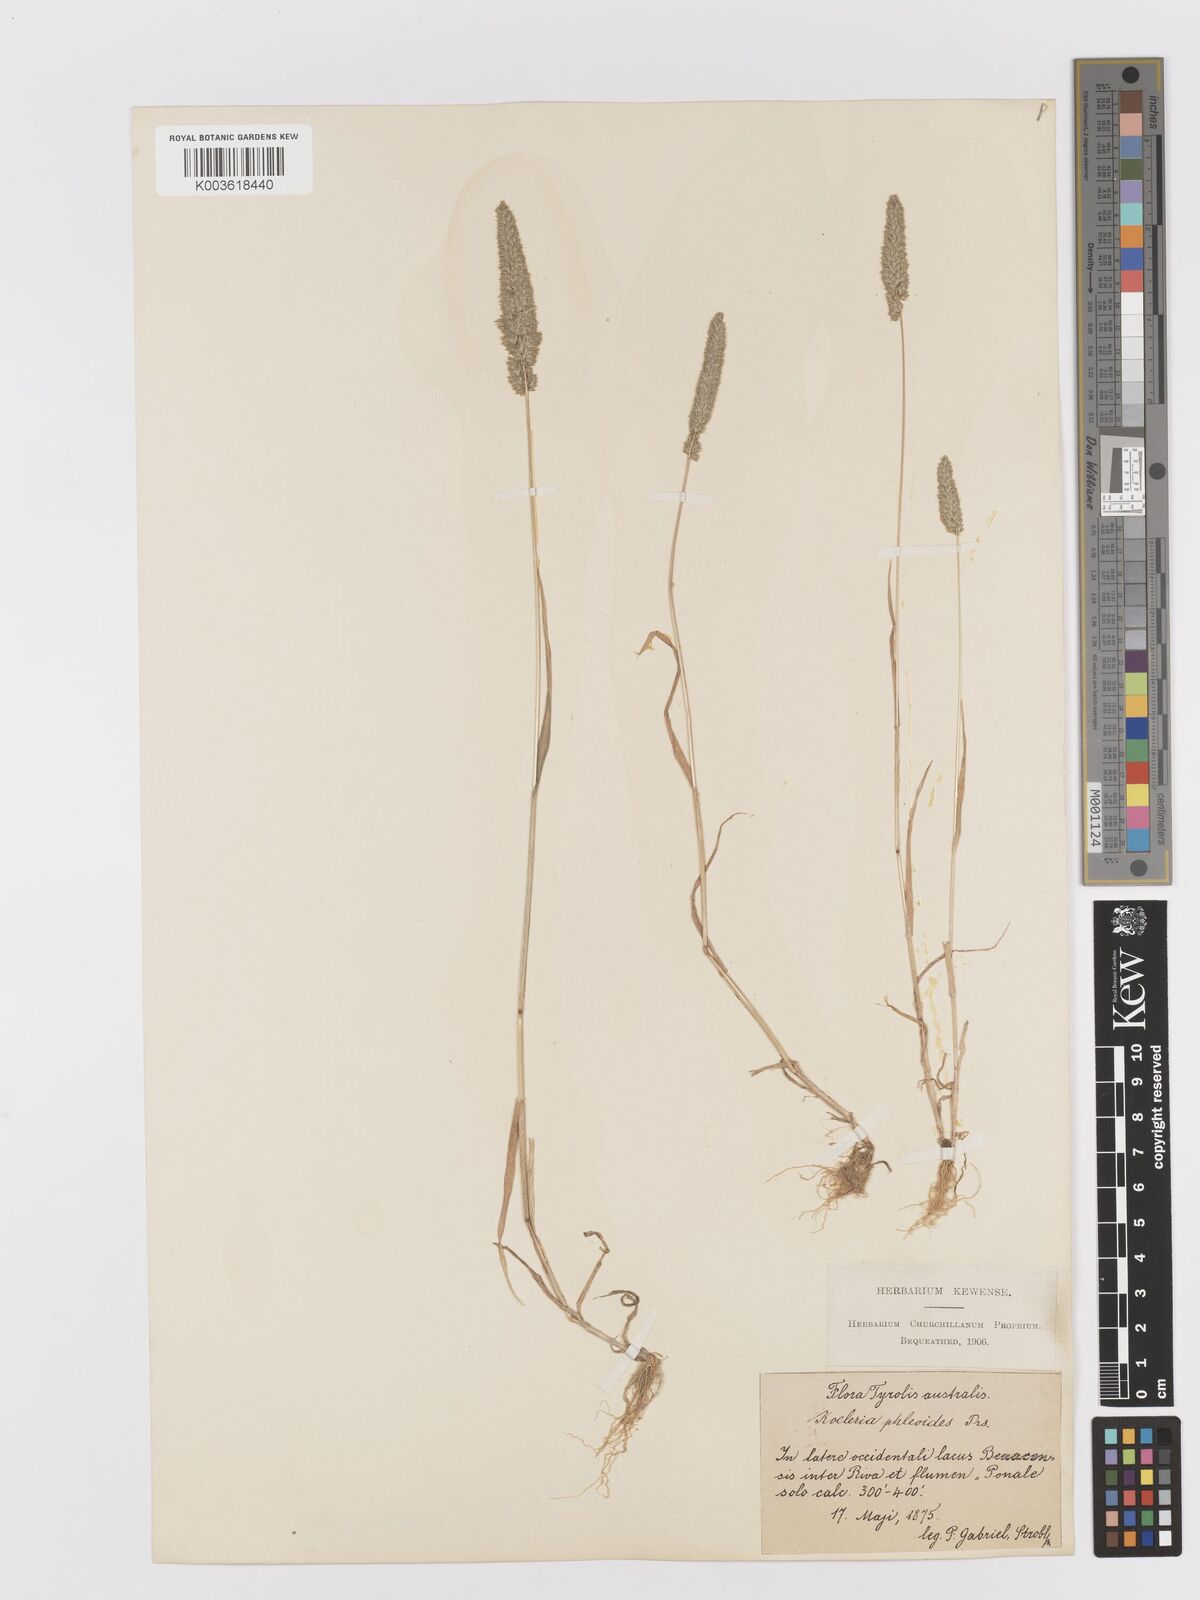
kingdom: Plantae
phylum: Tracheophyta
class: Liliopsida
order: Poales
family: Poaceae
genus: Rostraria
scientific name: Rostraria cristata
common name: Mediterranean hair-grass
